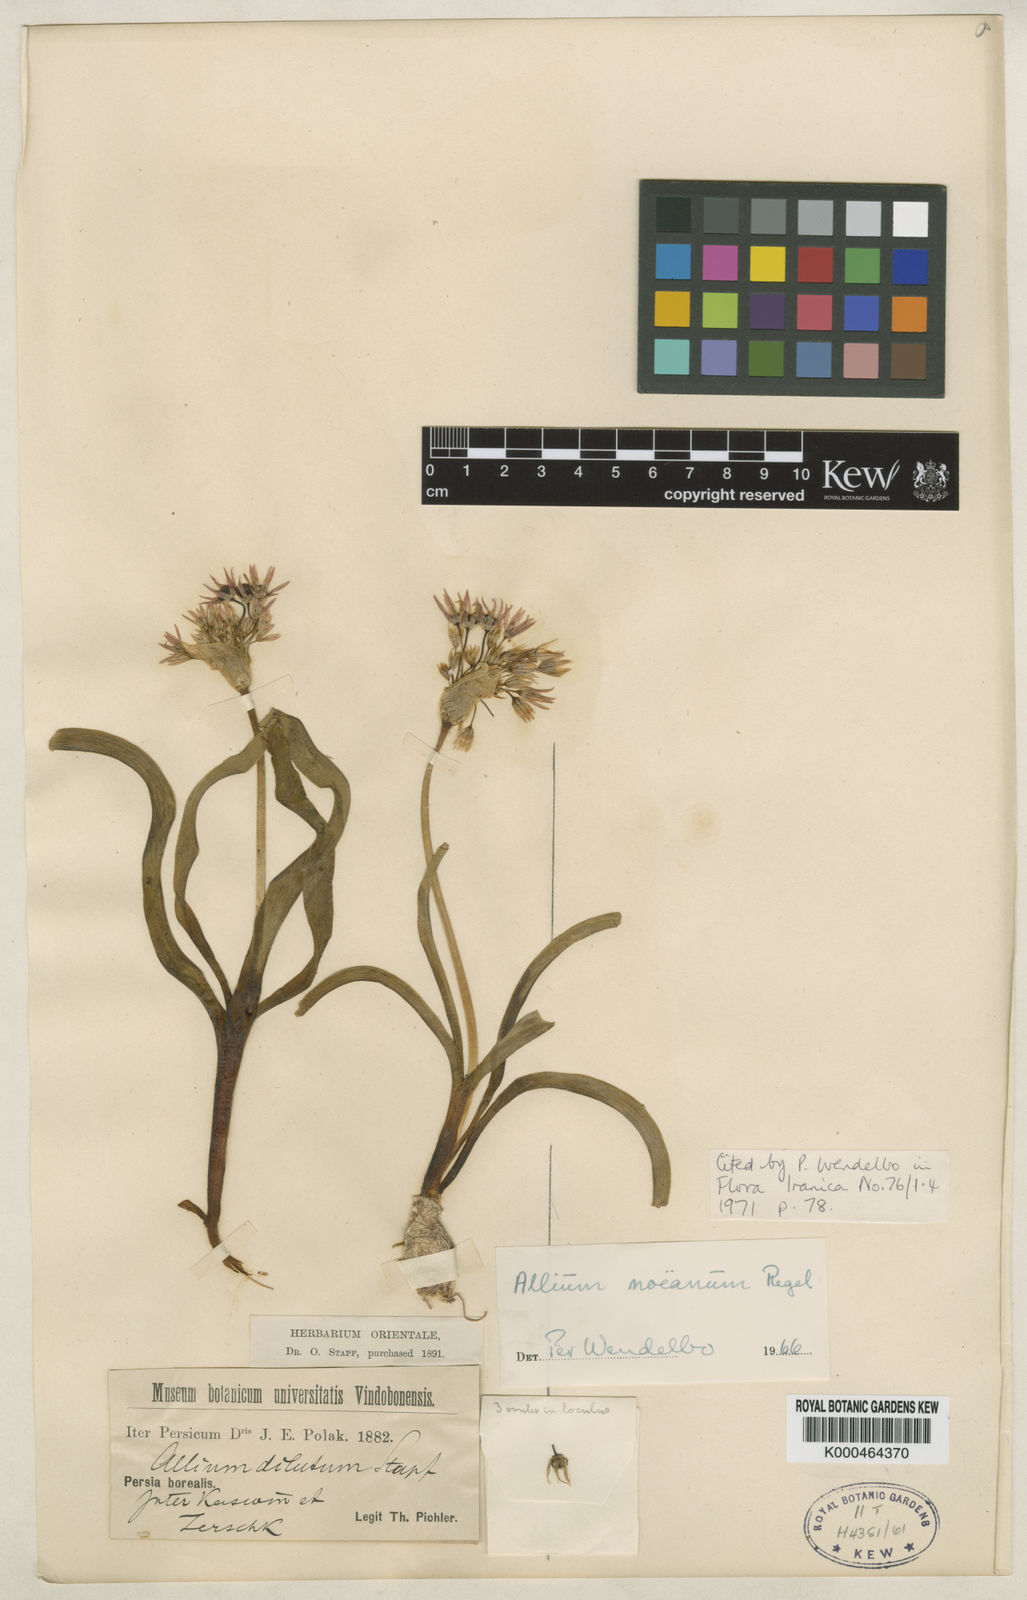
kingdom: Plantae
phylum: Tracheophyta
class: Liliopsida
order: Asparagales
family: Amaryllidaceae
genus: Allium
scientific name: Allium
